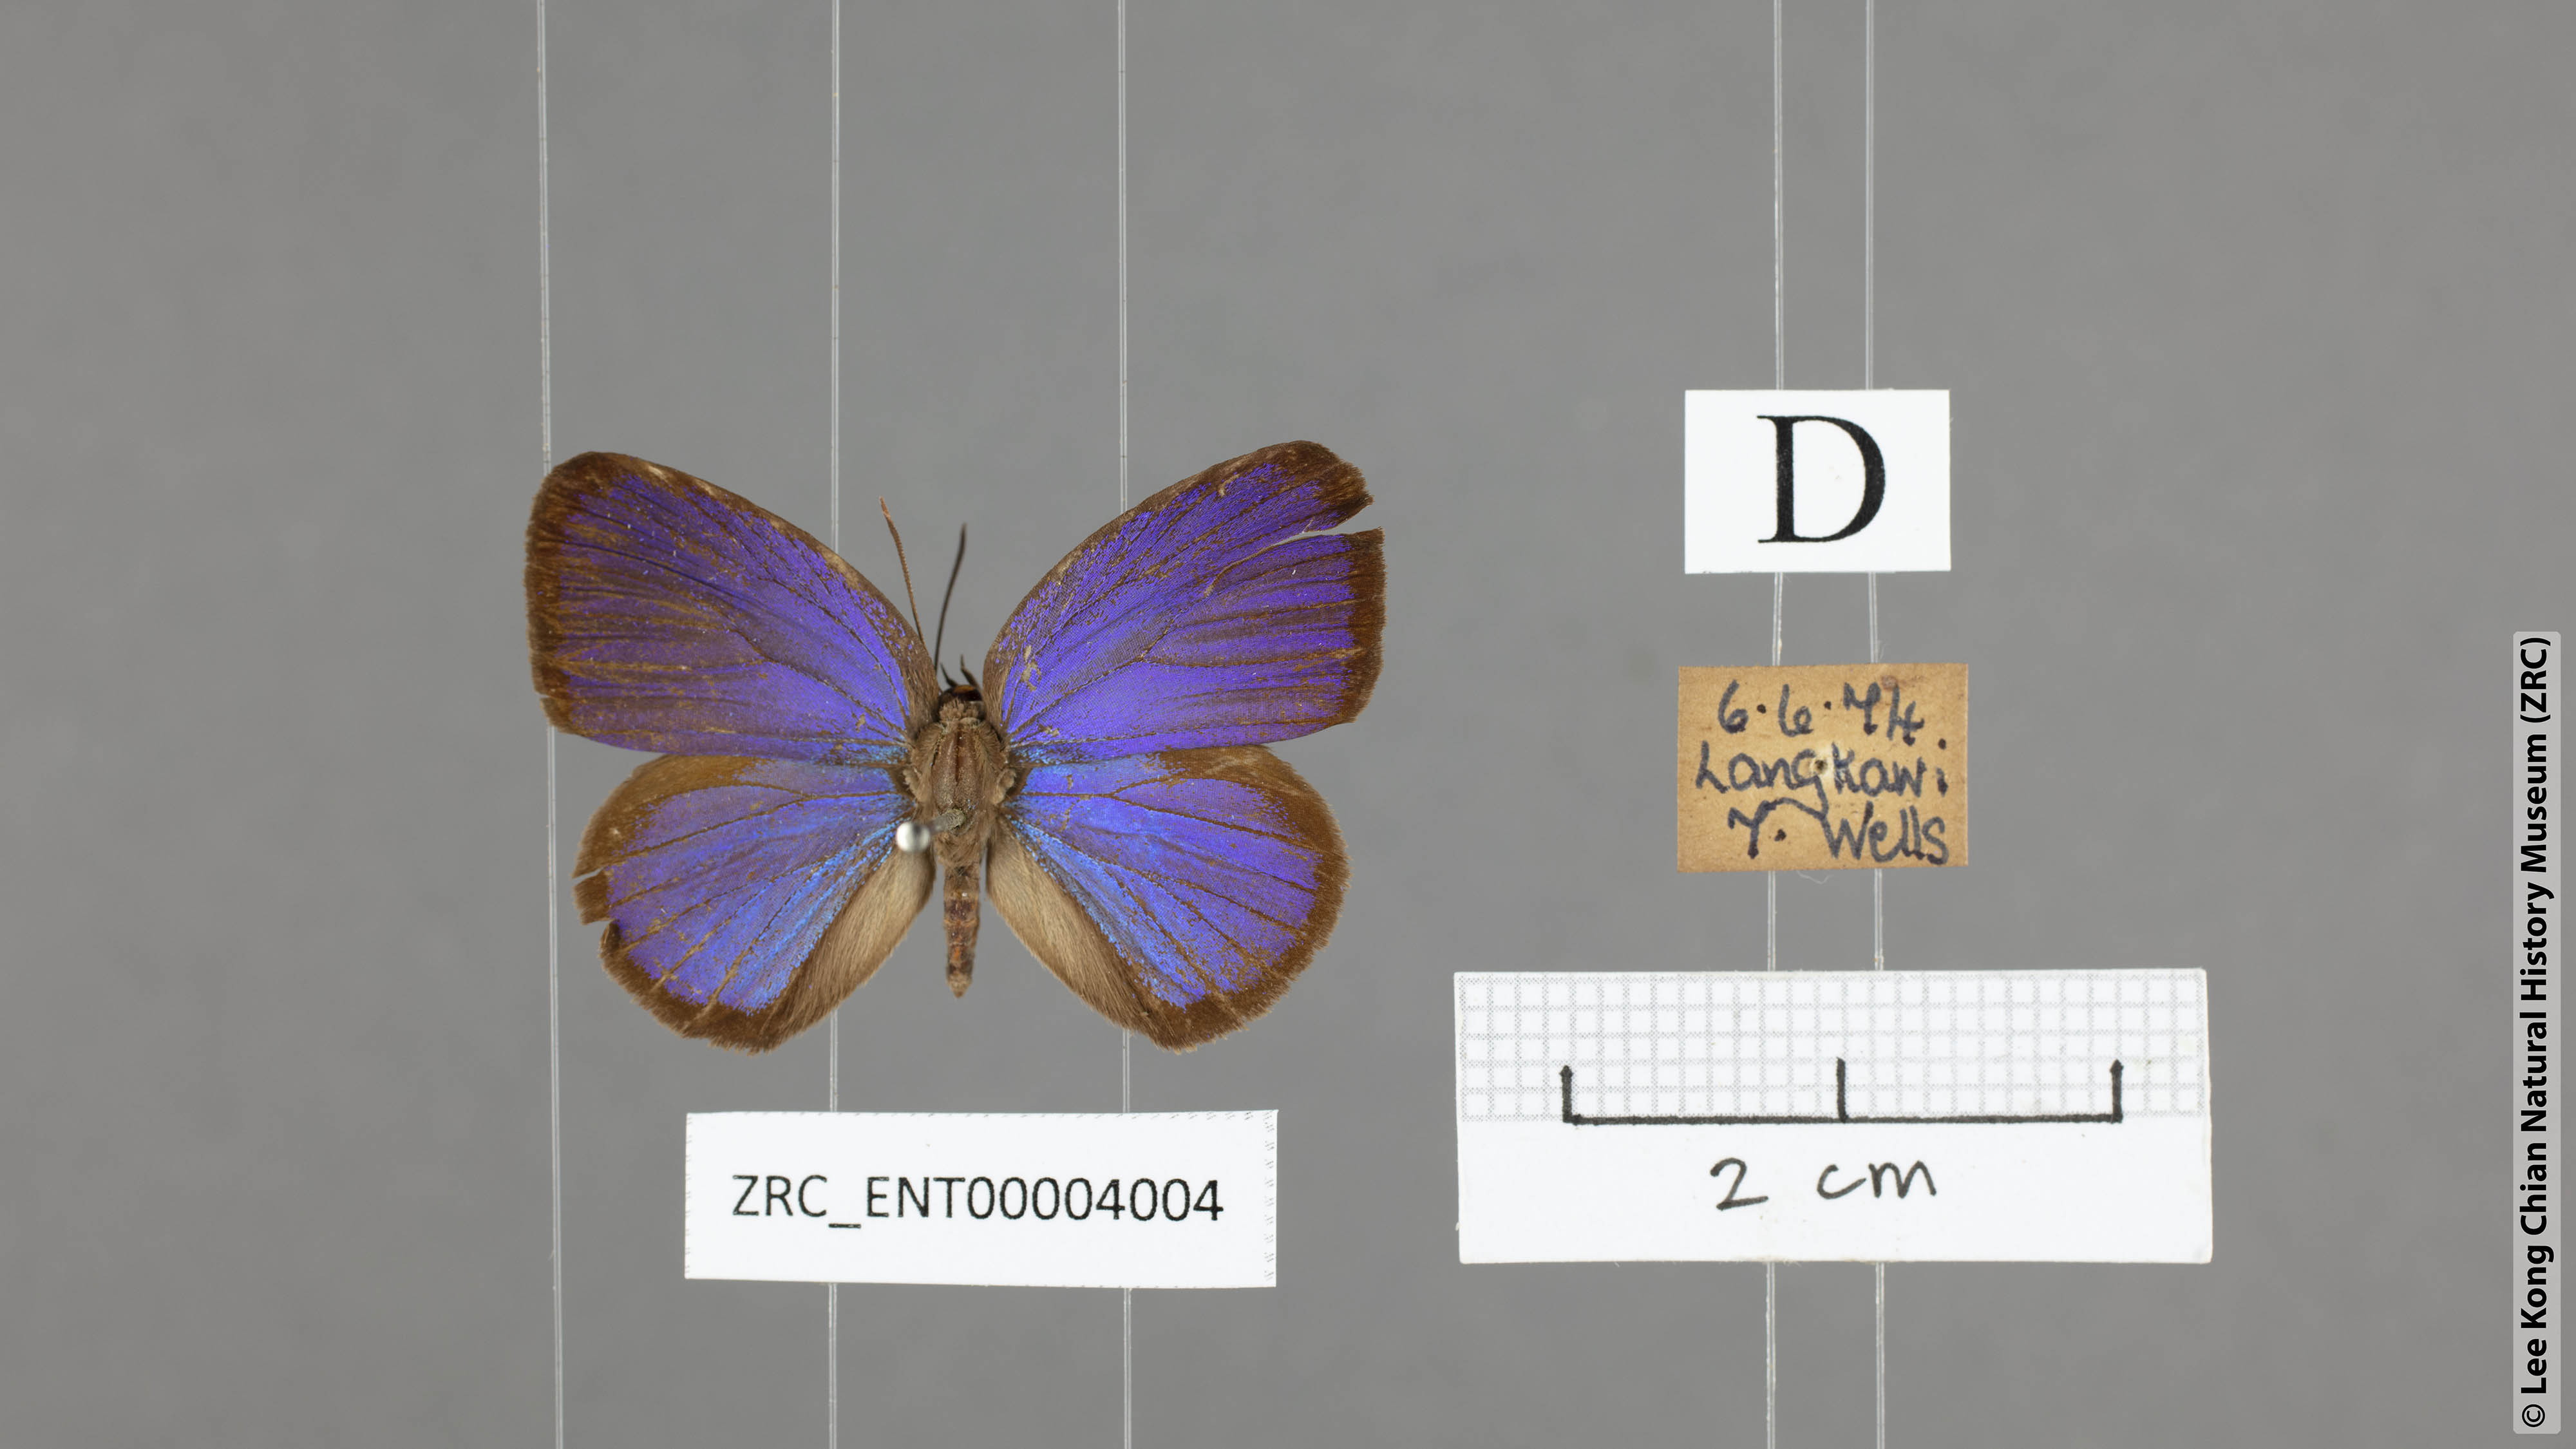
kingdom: Animalia
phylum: Arthropoda
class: Insecta
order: Lepidoptera
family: Lycaenidae
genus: Arhopala
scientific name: Arhopala muta
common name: Mutal oakblue
